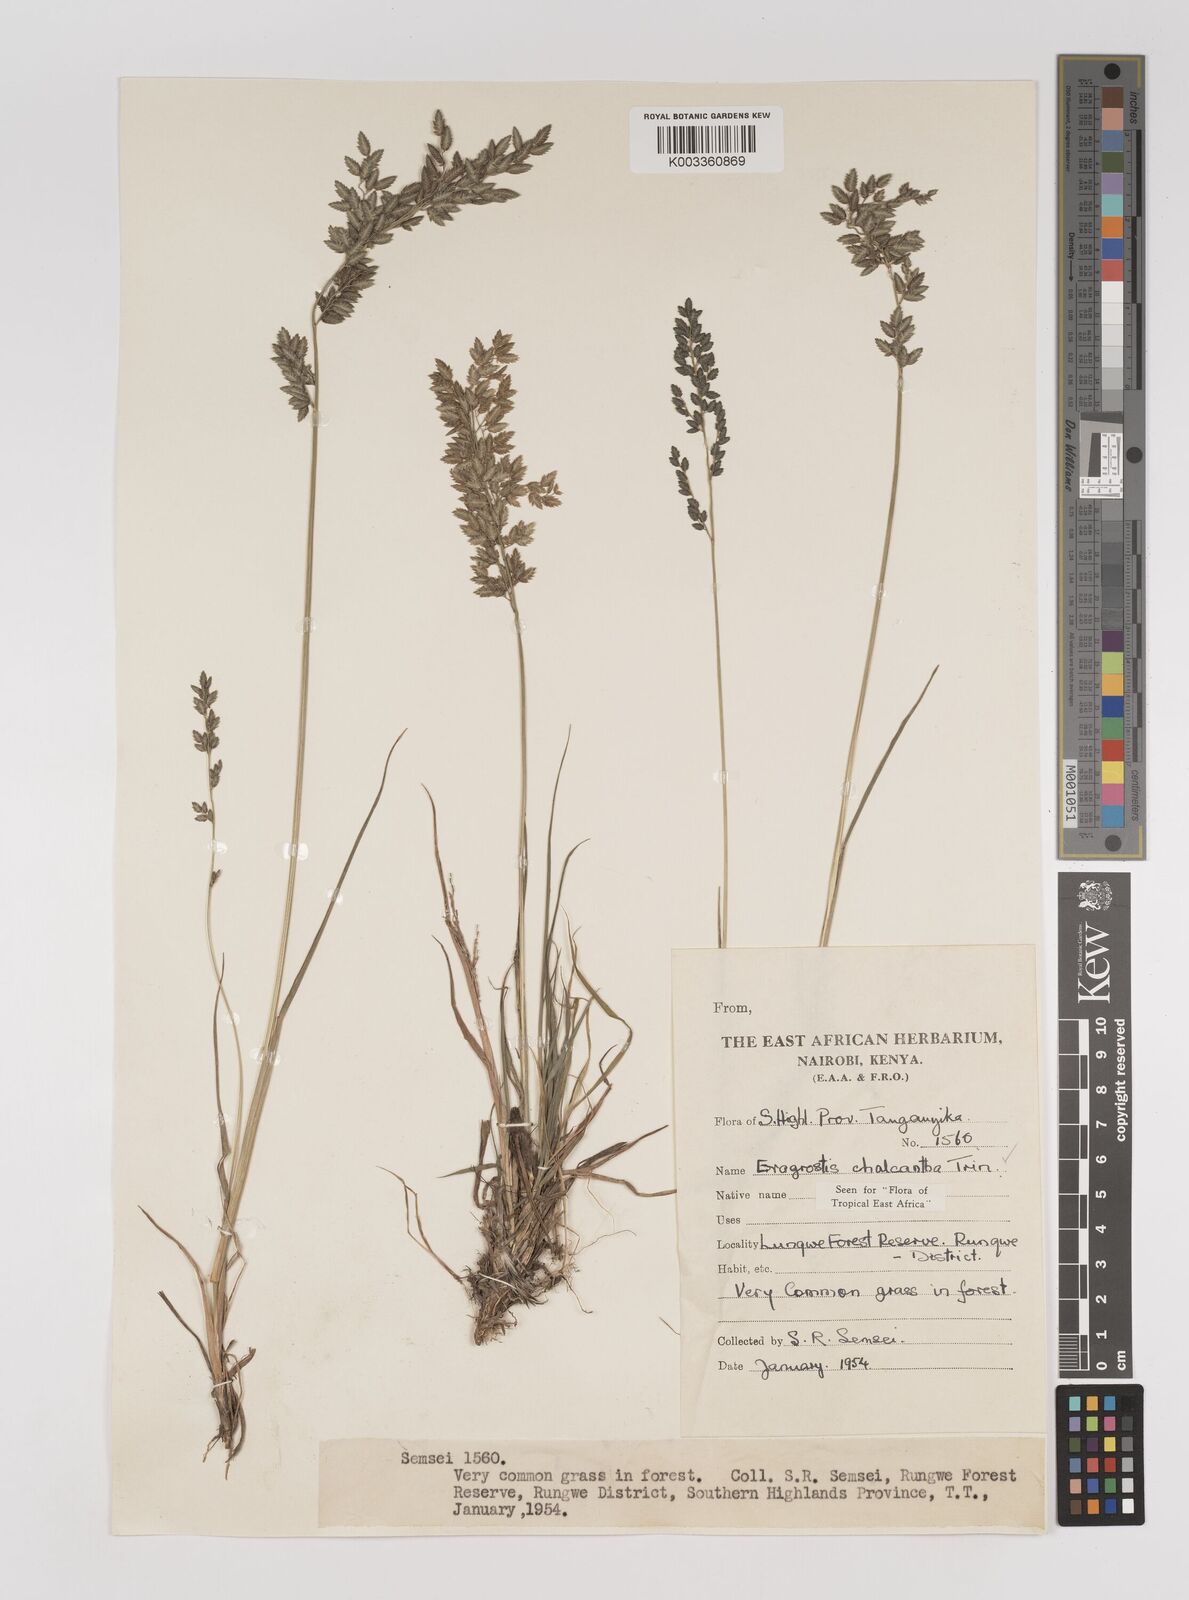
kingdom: Plantae
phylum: Tracheophyta
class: Liliopsida
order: Poales
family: Poaceae
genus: Eragrostis
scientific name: Eragrostis racemosa
